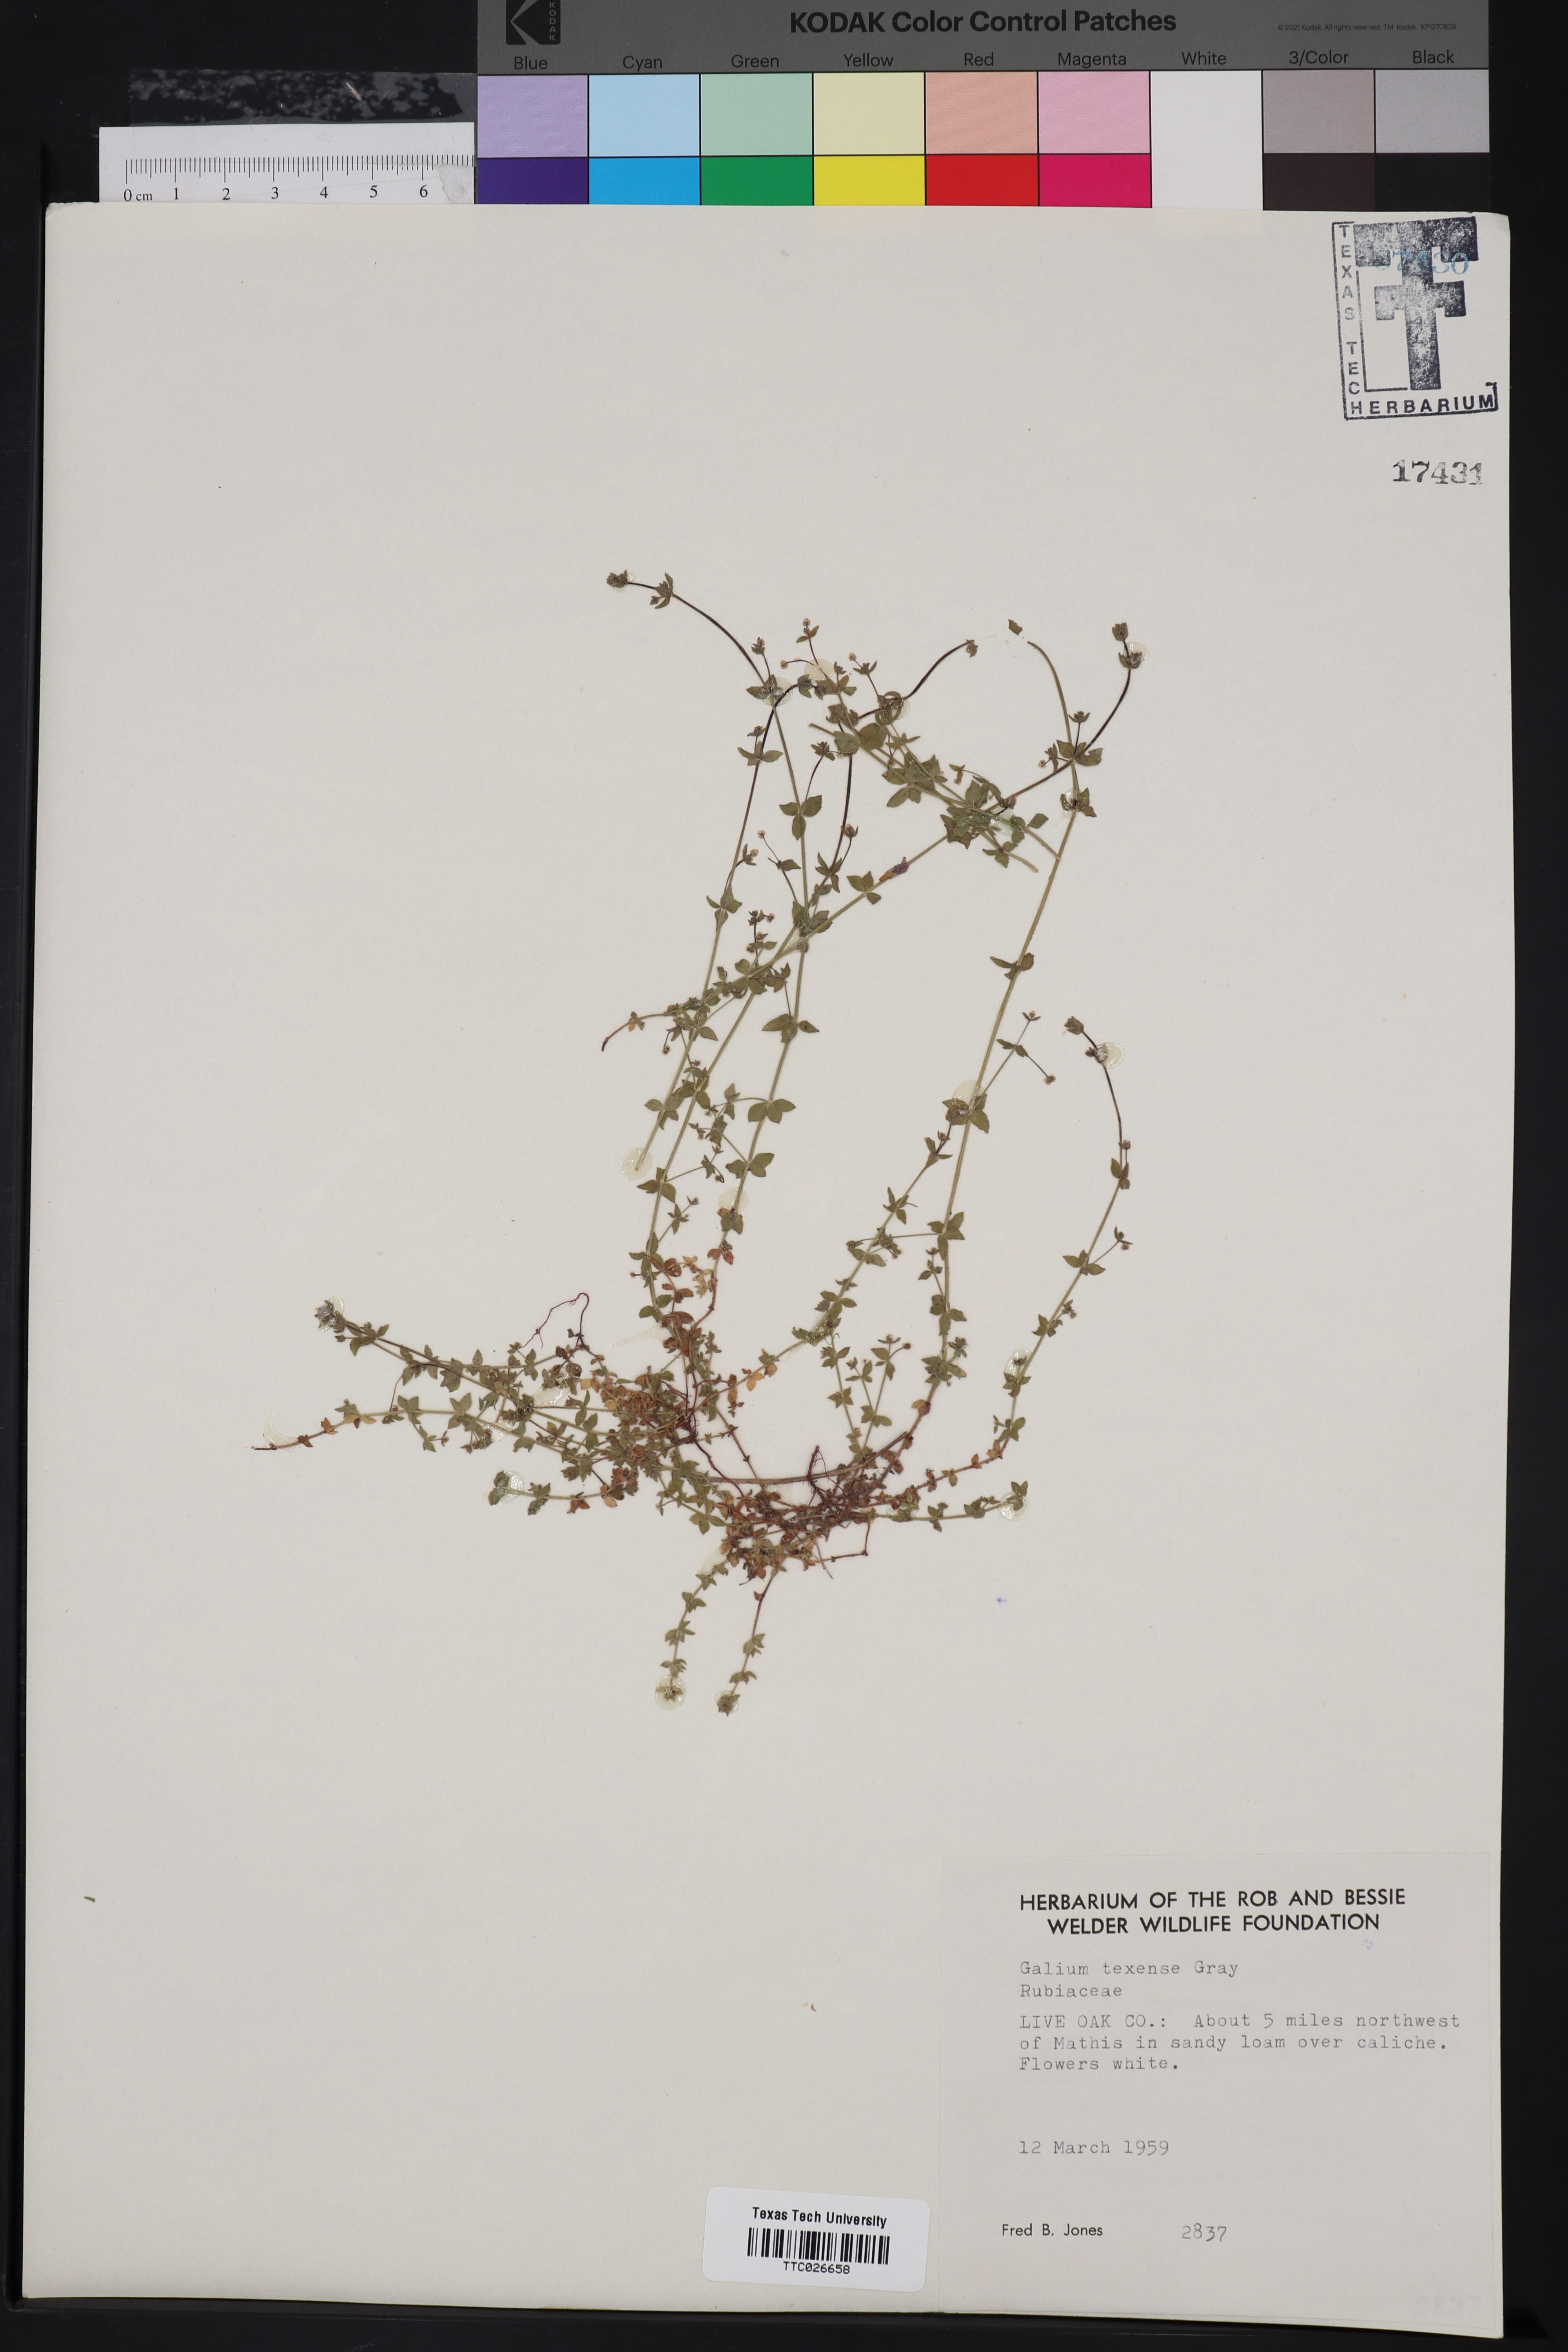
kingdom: Plantae
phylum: Tracheophyta
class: Magnoliopsida
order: Gentianales
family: Rubiaceae
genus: Galium
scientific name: Galium texense
